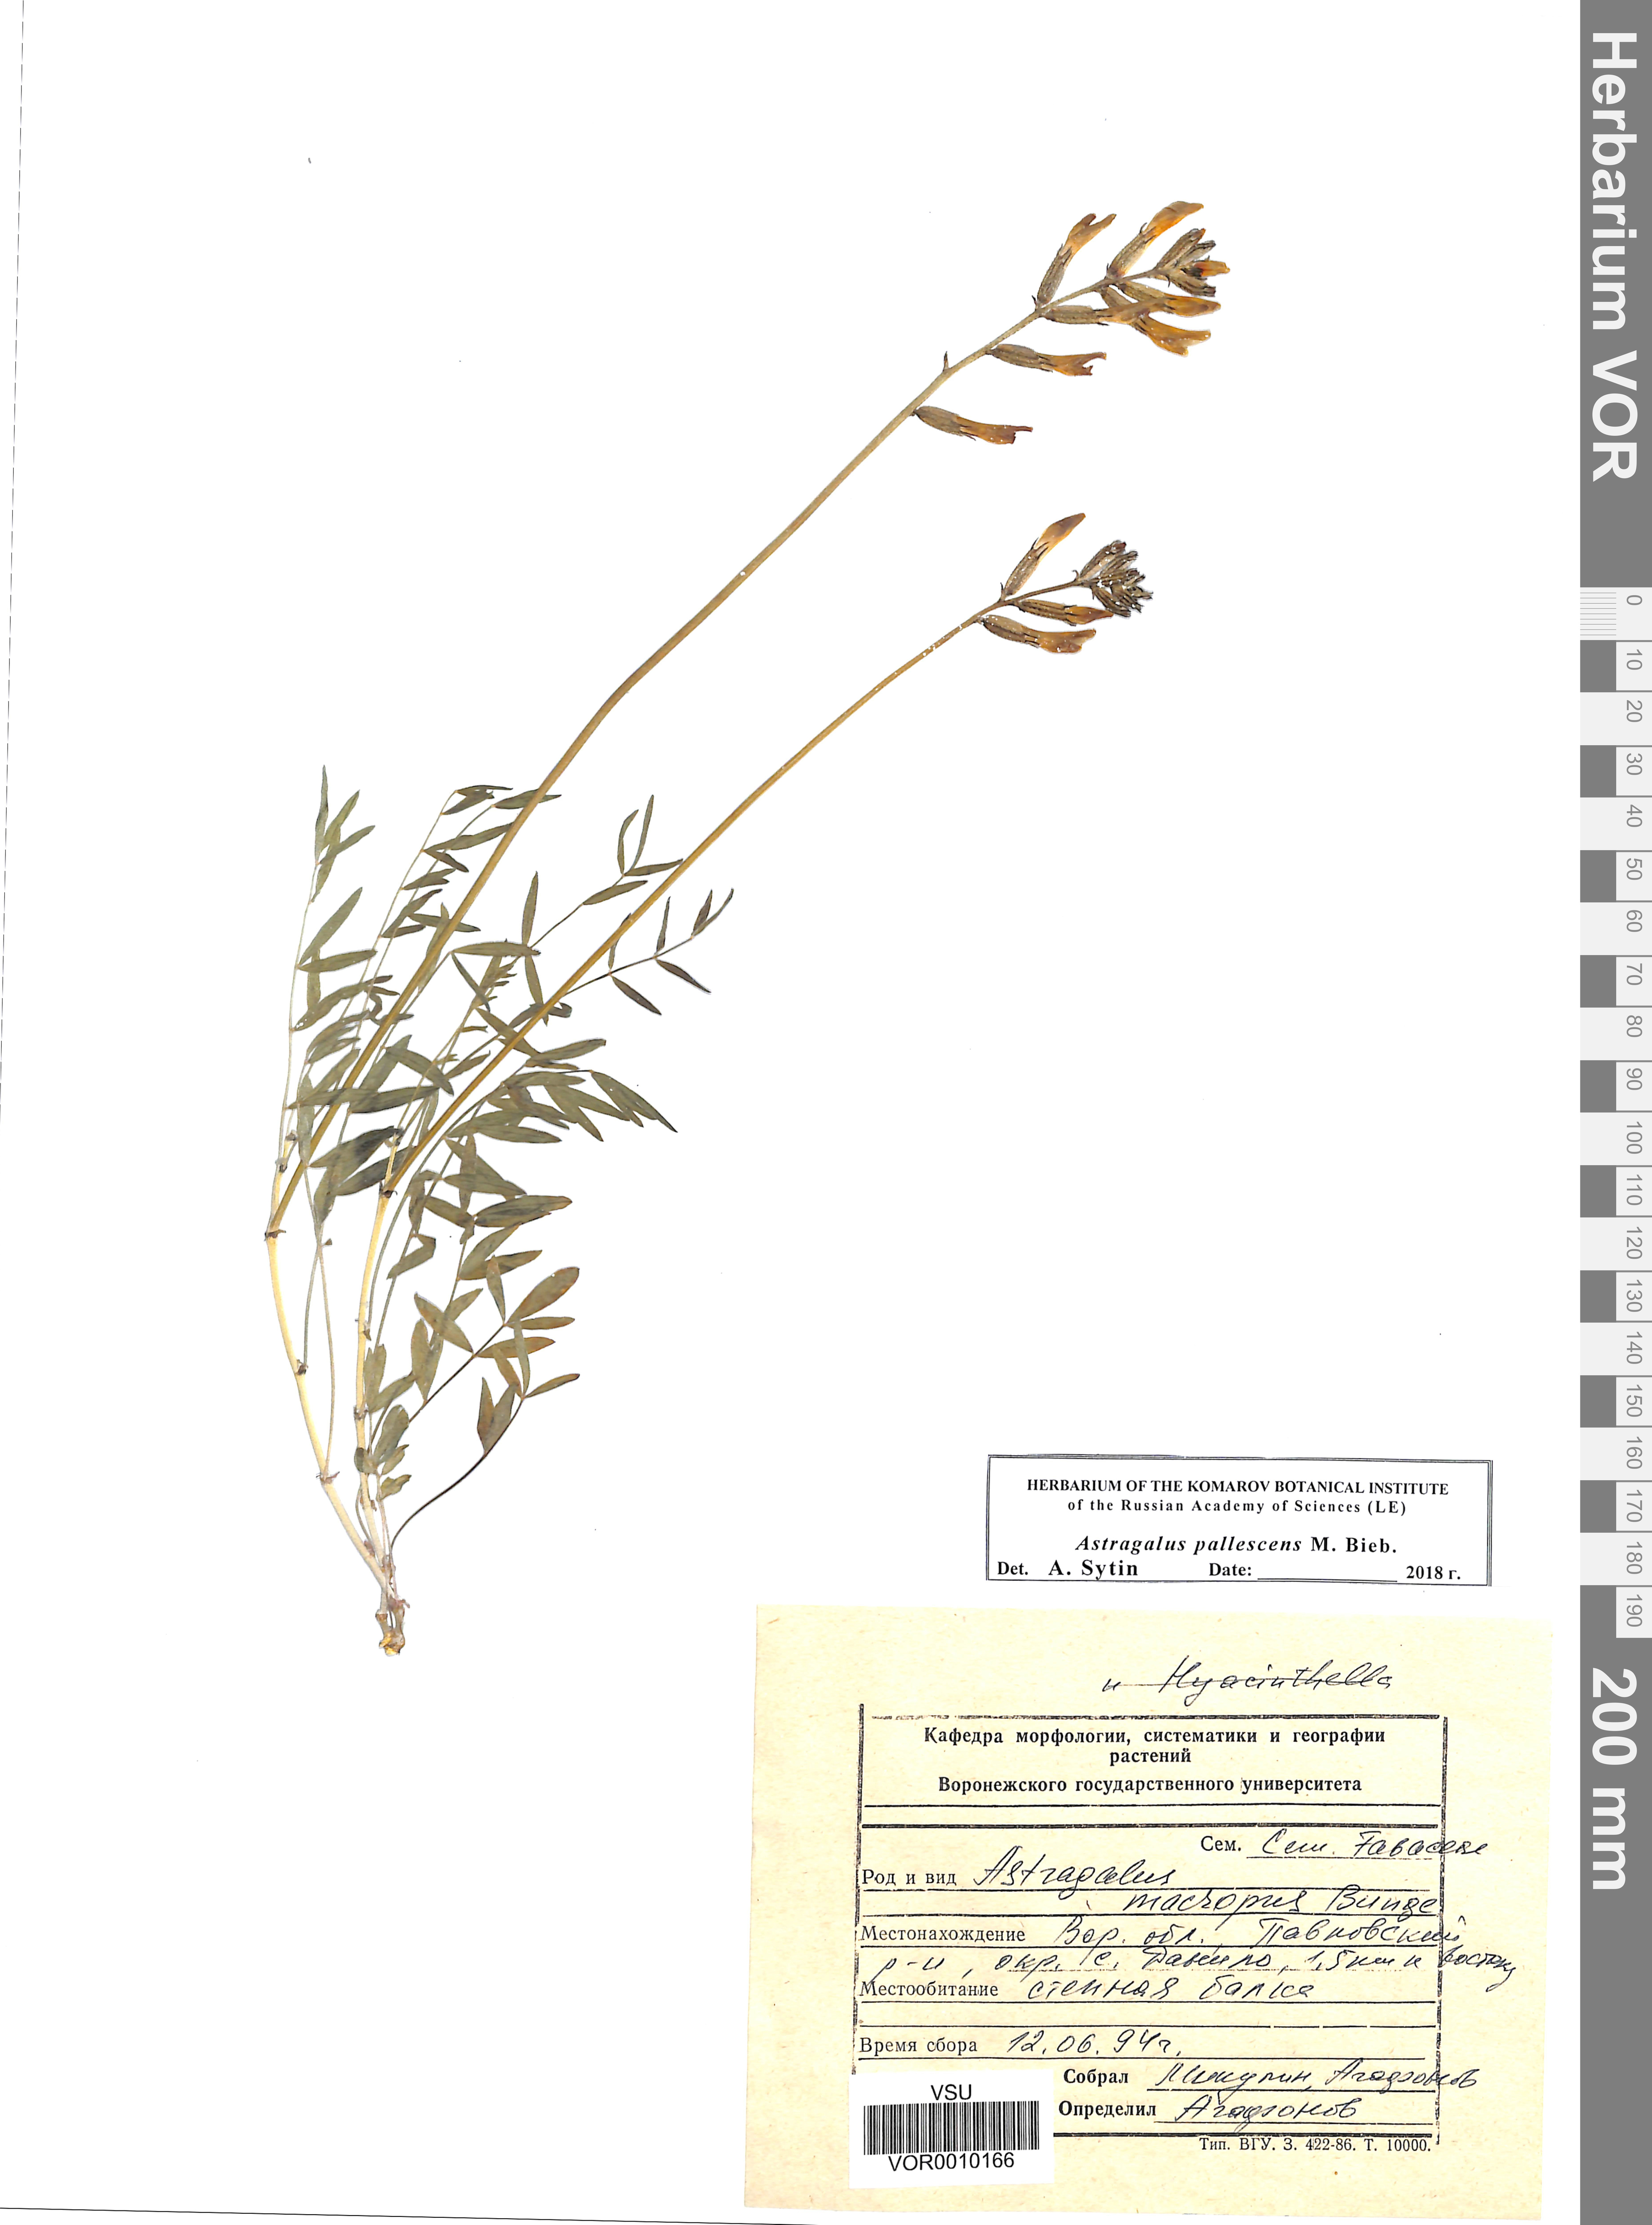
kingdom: Plantae
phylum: Tracheophyta
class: Magnoliopsida
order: Fabales
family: Fabaceae
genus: Astragalus
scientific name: Astragalus pallescens
